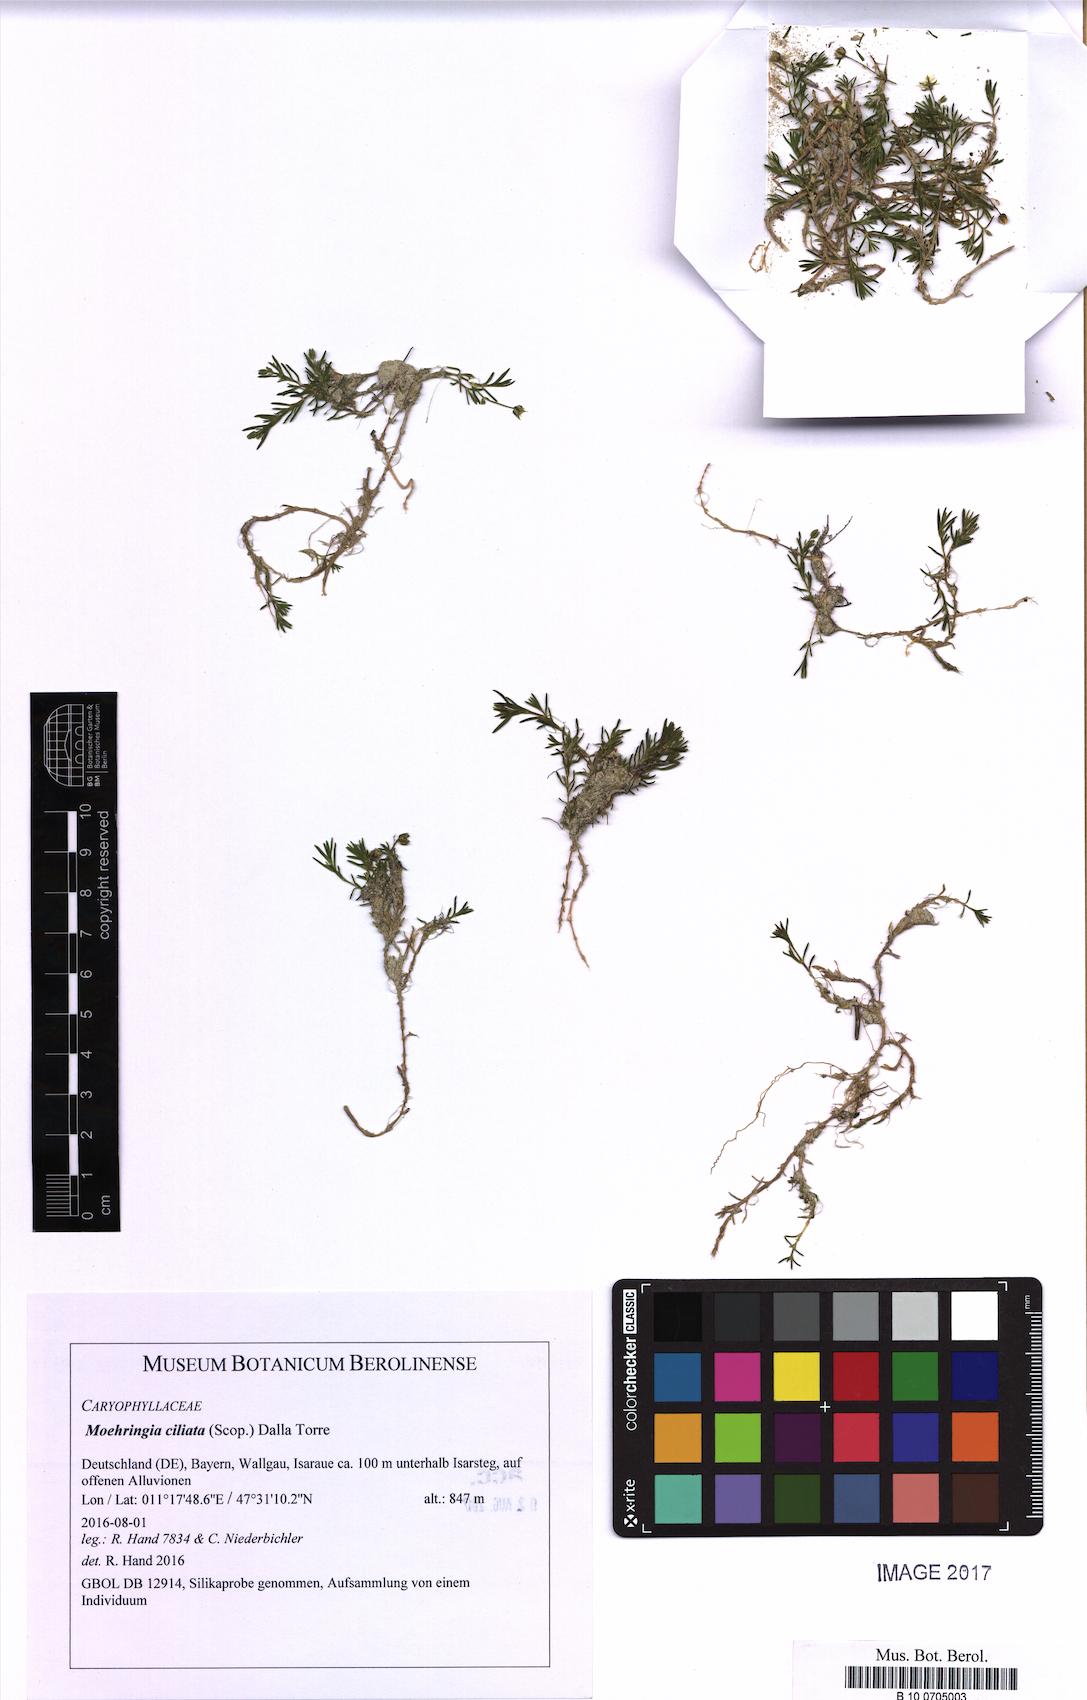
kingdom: Plantae
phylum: Tracheophyta
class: Magnoliopsida
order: Caryophyllales
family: Caryophyllaceae
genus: Moehringia
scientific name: Moehringia ciliata
